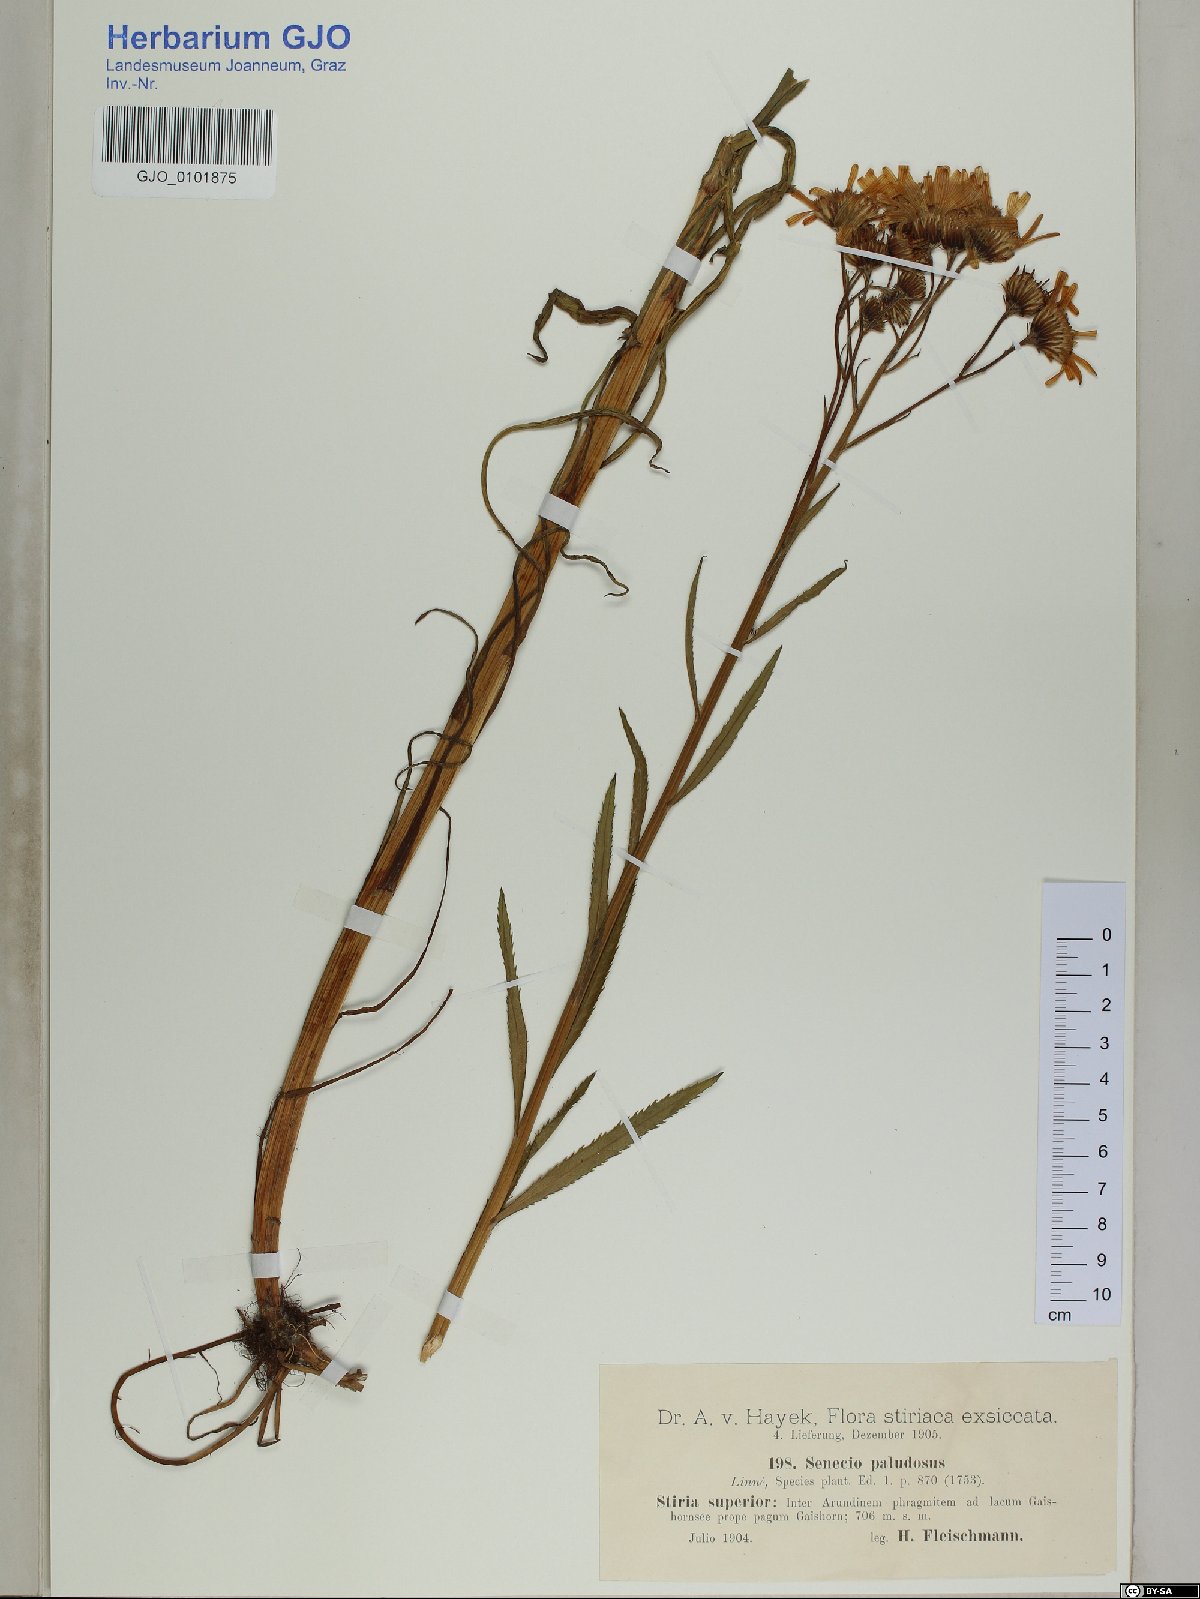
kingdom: Plantae
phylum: Tracheophyta
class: Magnoliopsida
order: Asterales
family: Asteraceae
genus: Jacobaea
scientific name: Jacobaea paludosa
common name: Fen ragwort
